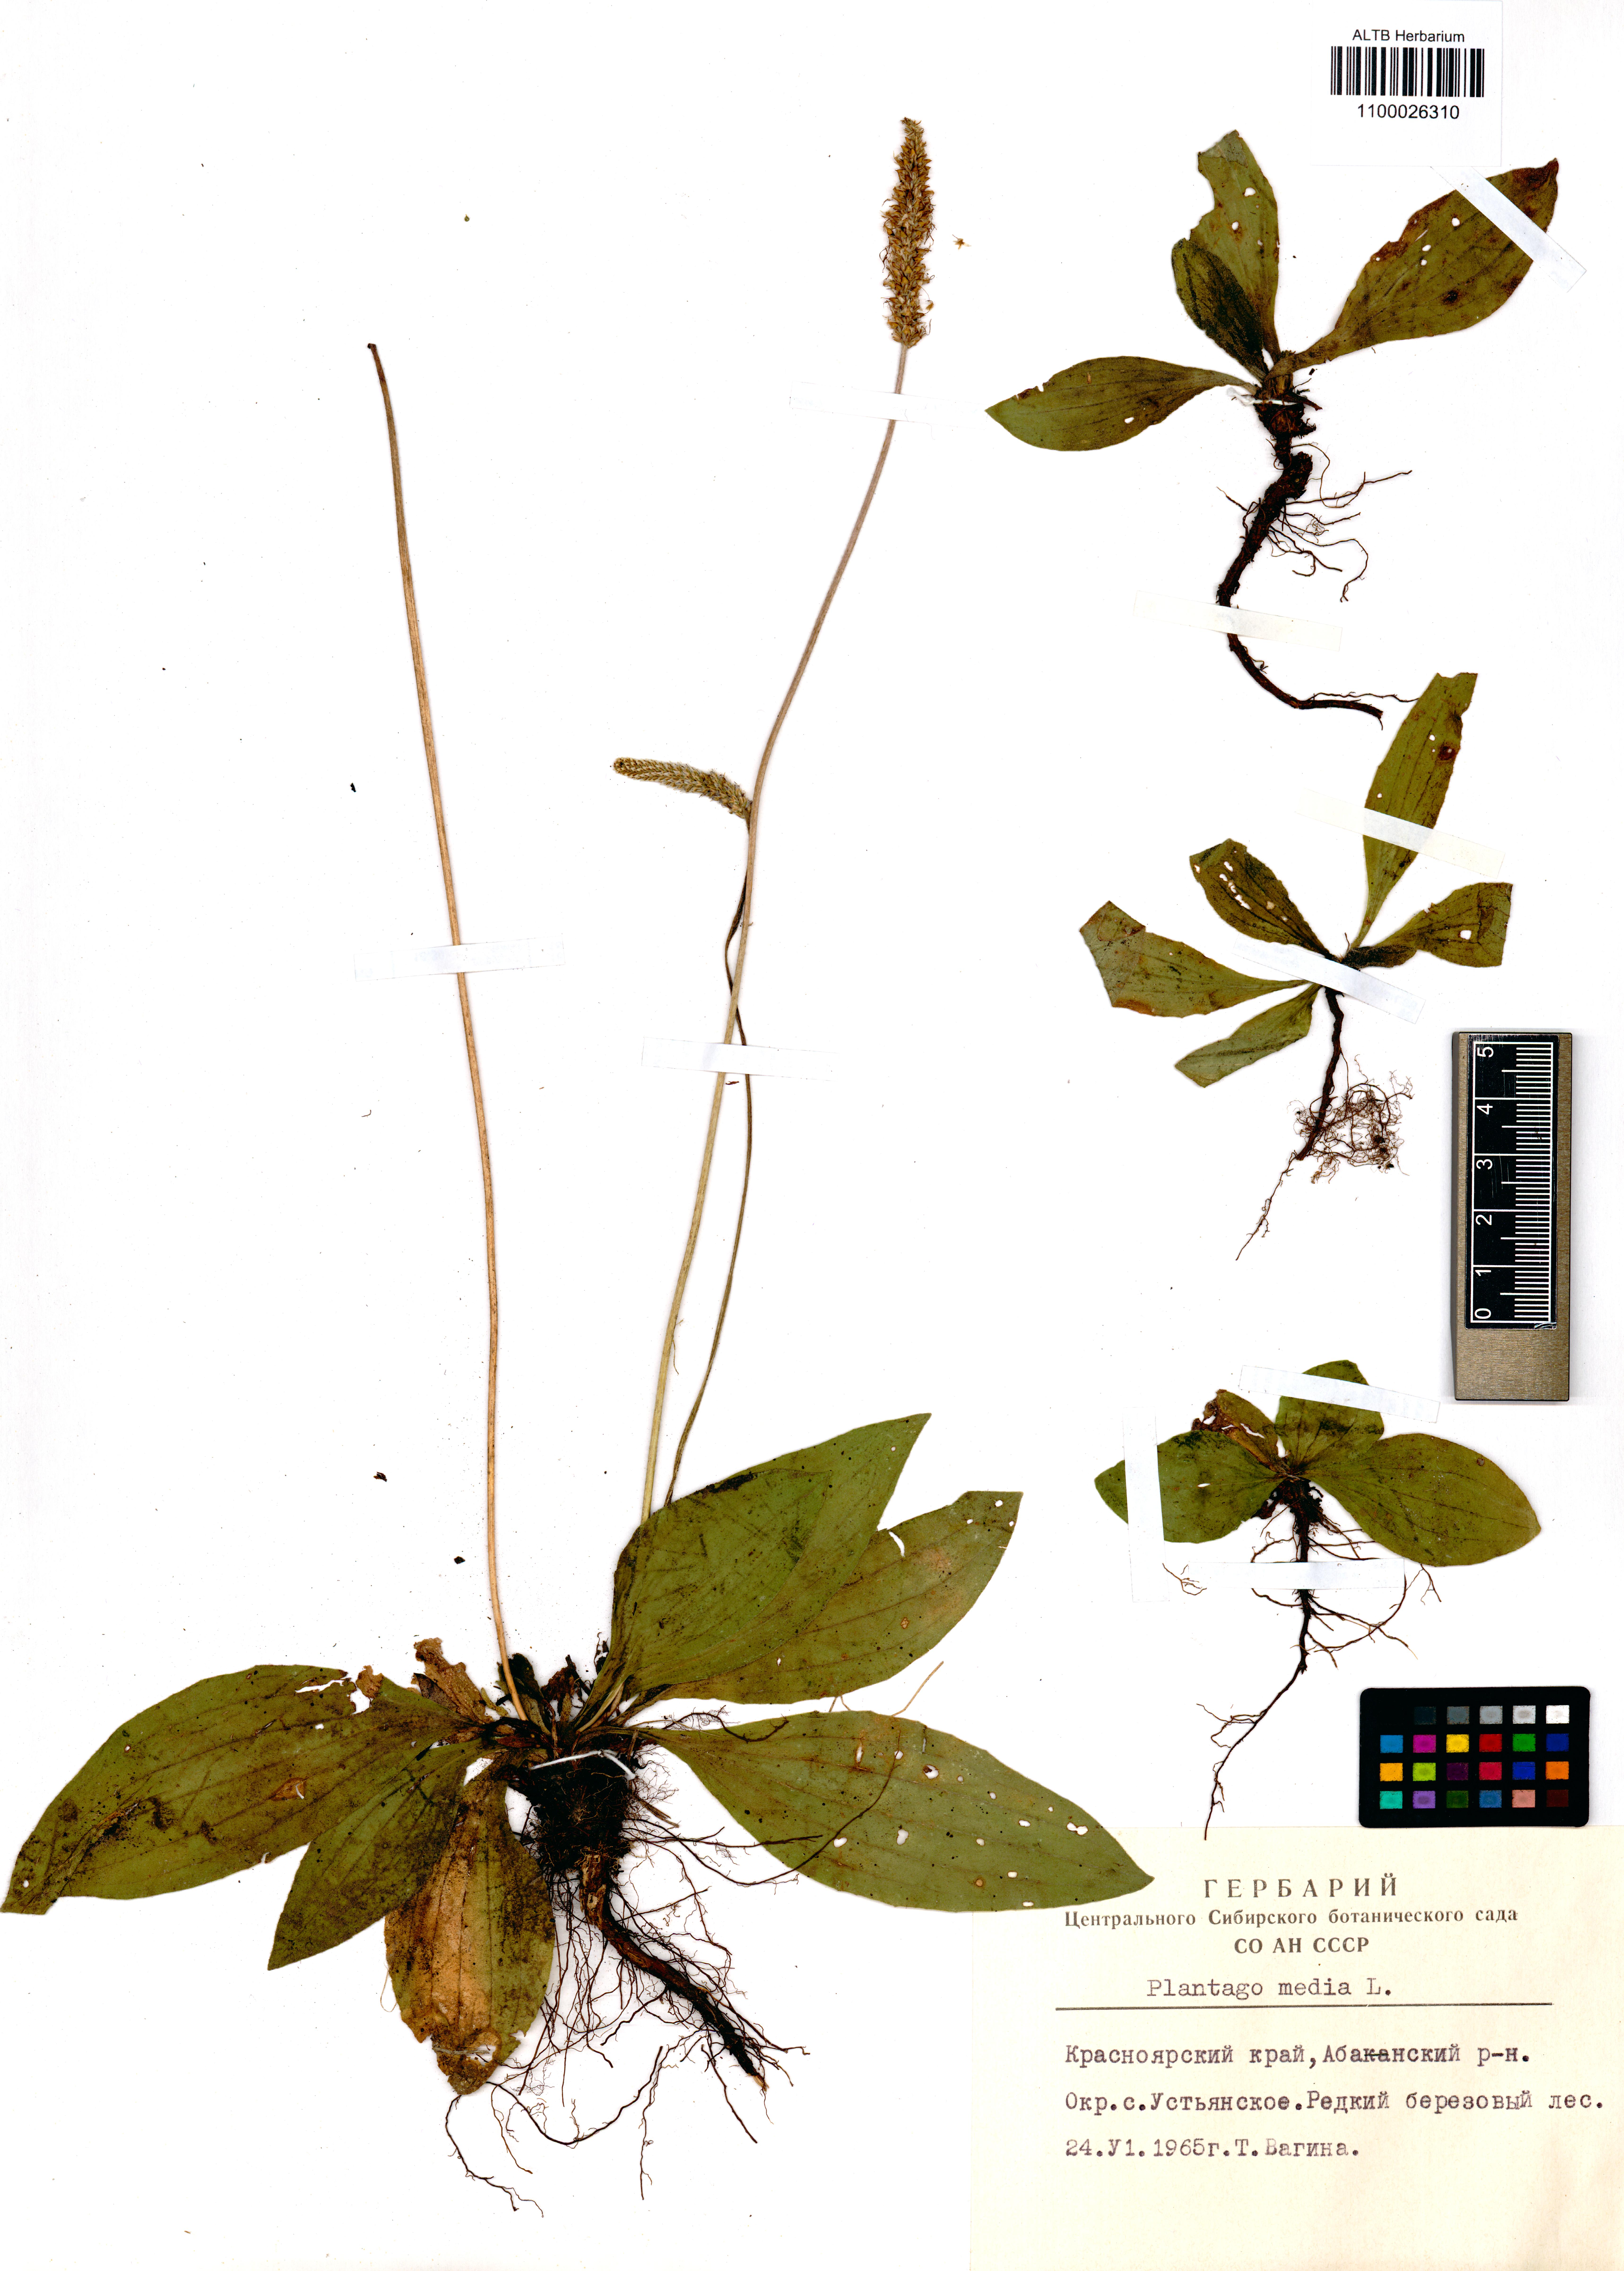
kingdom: Plantae
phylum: Tracheophyta
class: Magnoliopsida
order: Lamiales
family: Plantaginaceae
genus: Plantago
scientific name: Plantago media
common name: Hoary plantain
